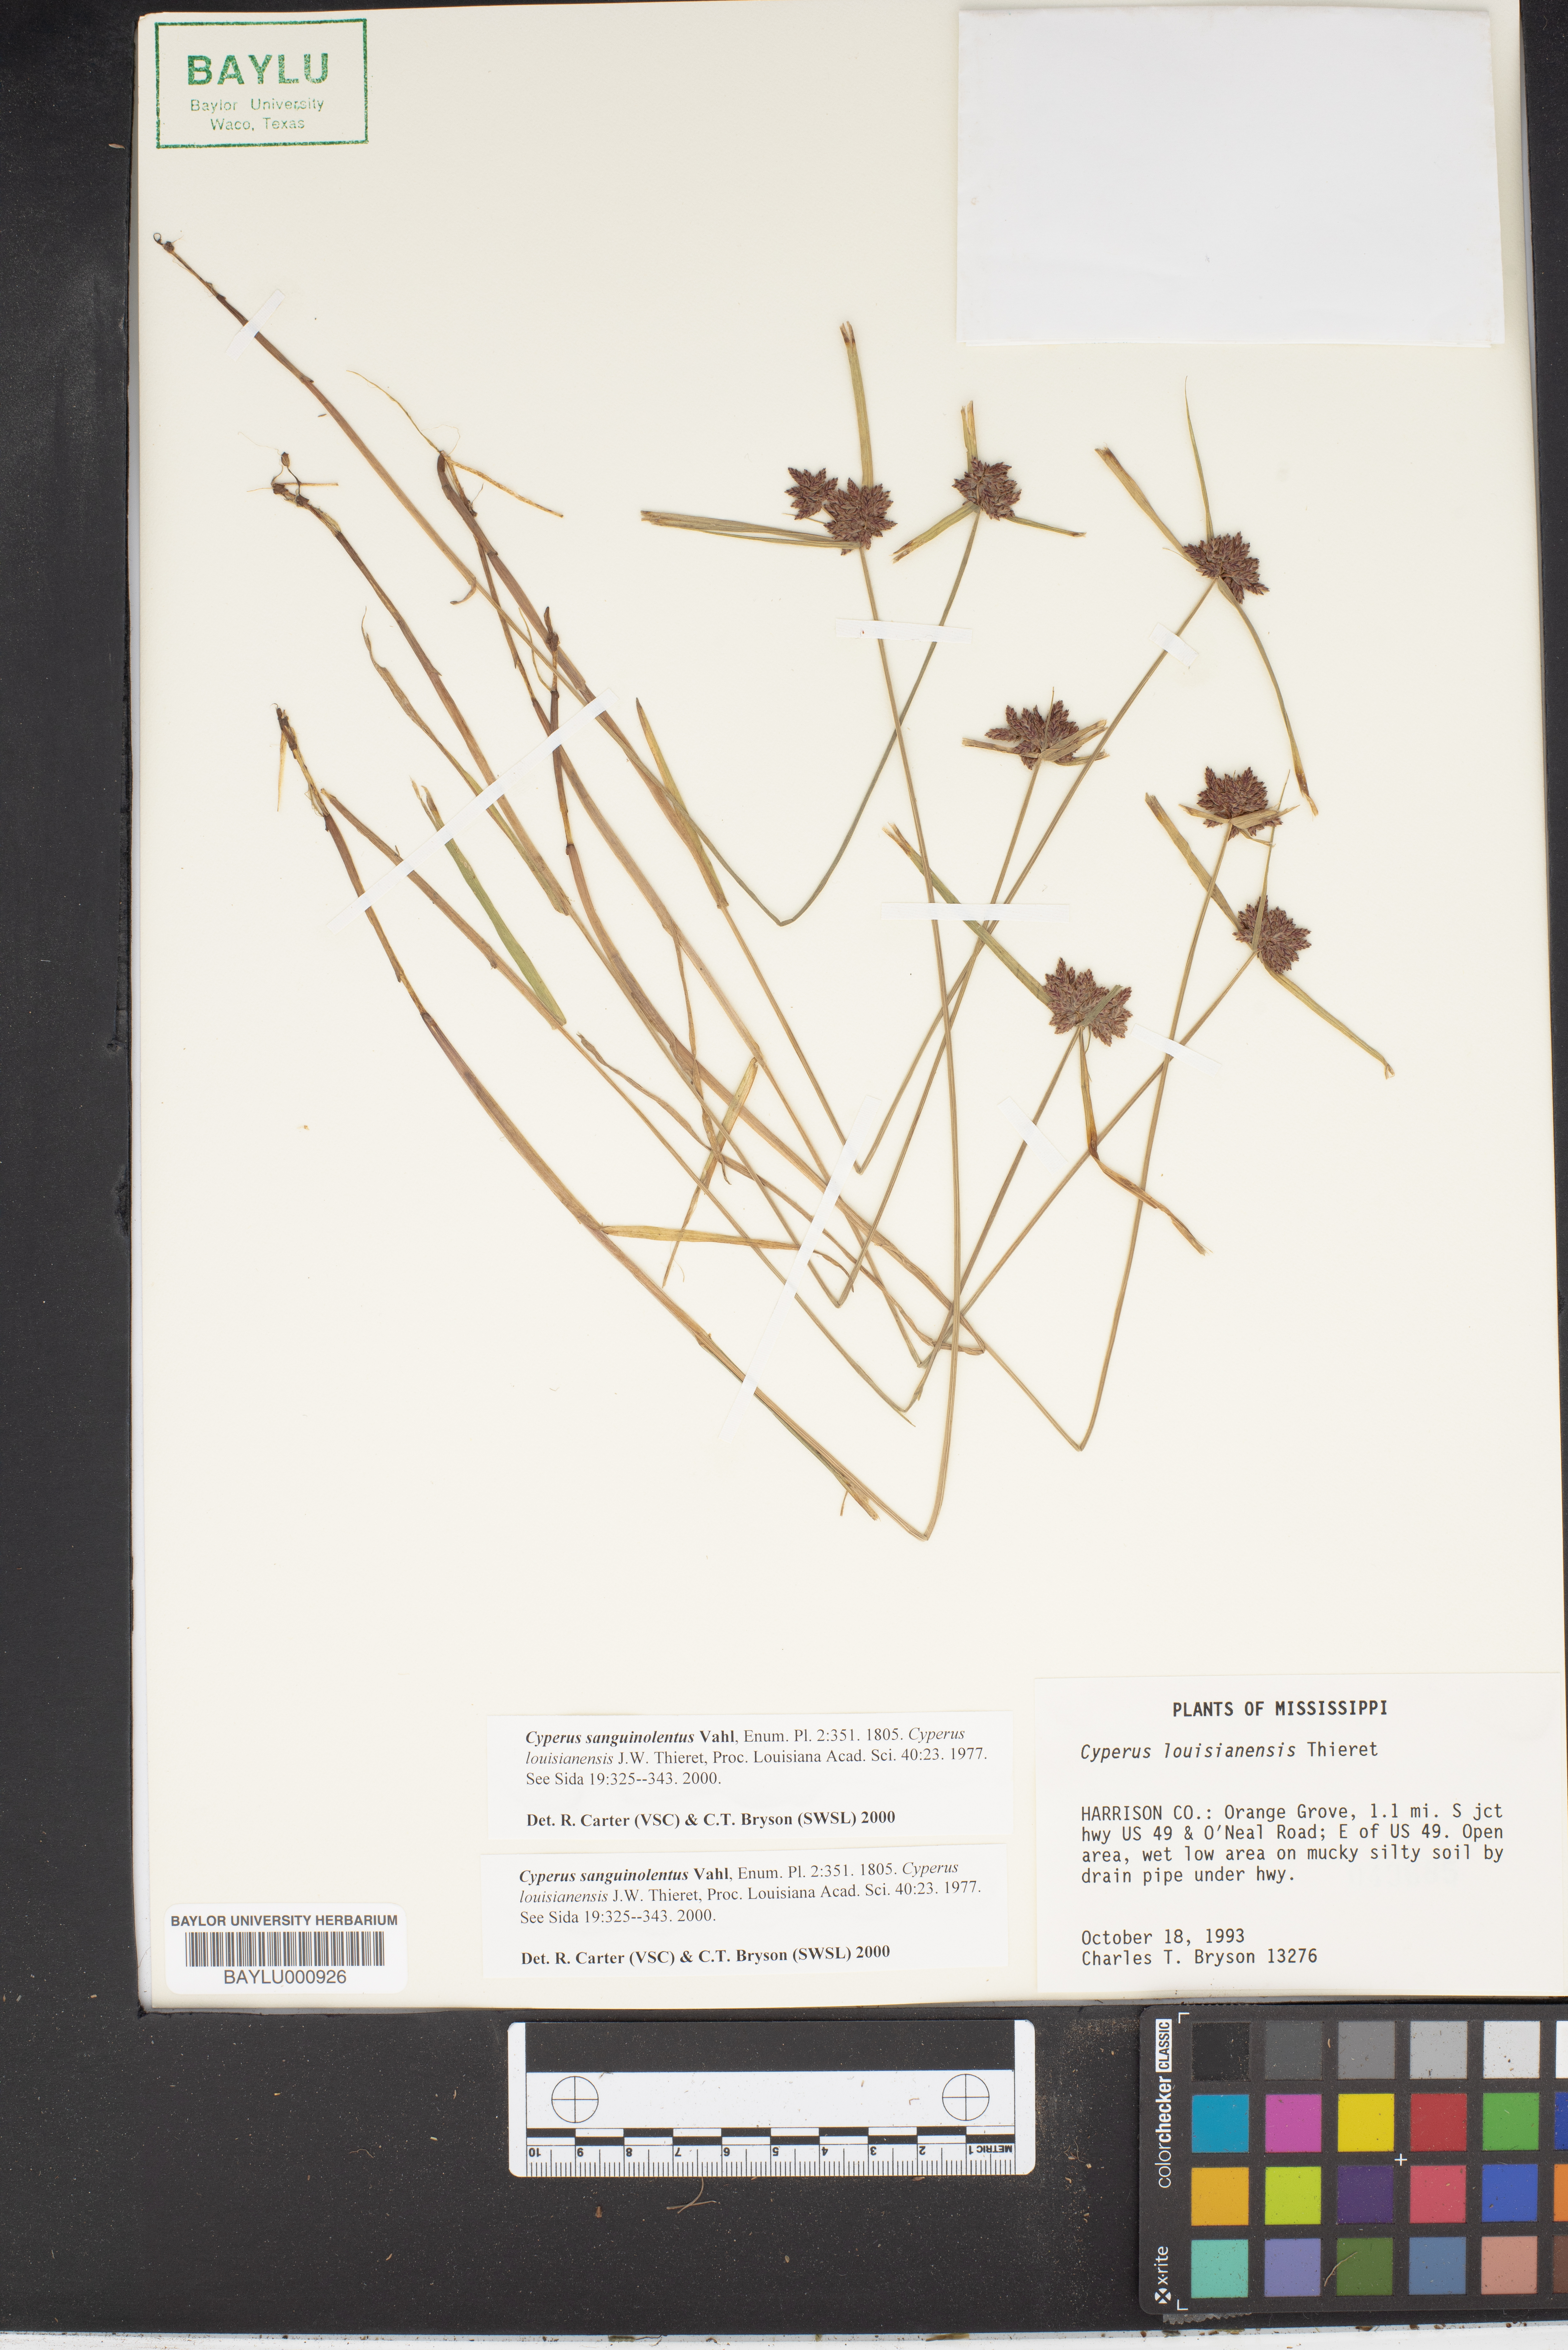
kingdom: Plantae
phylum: Tracheophyta
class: Liliopsida
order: Poales
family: Cyperaceae
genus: Cyperus
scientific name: Cyperus sanguinolentus
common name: Purpleglume flatsedge
